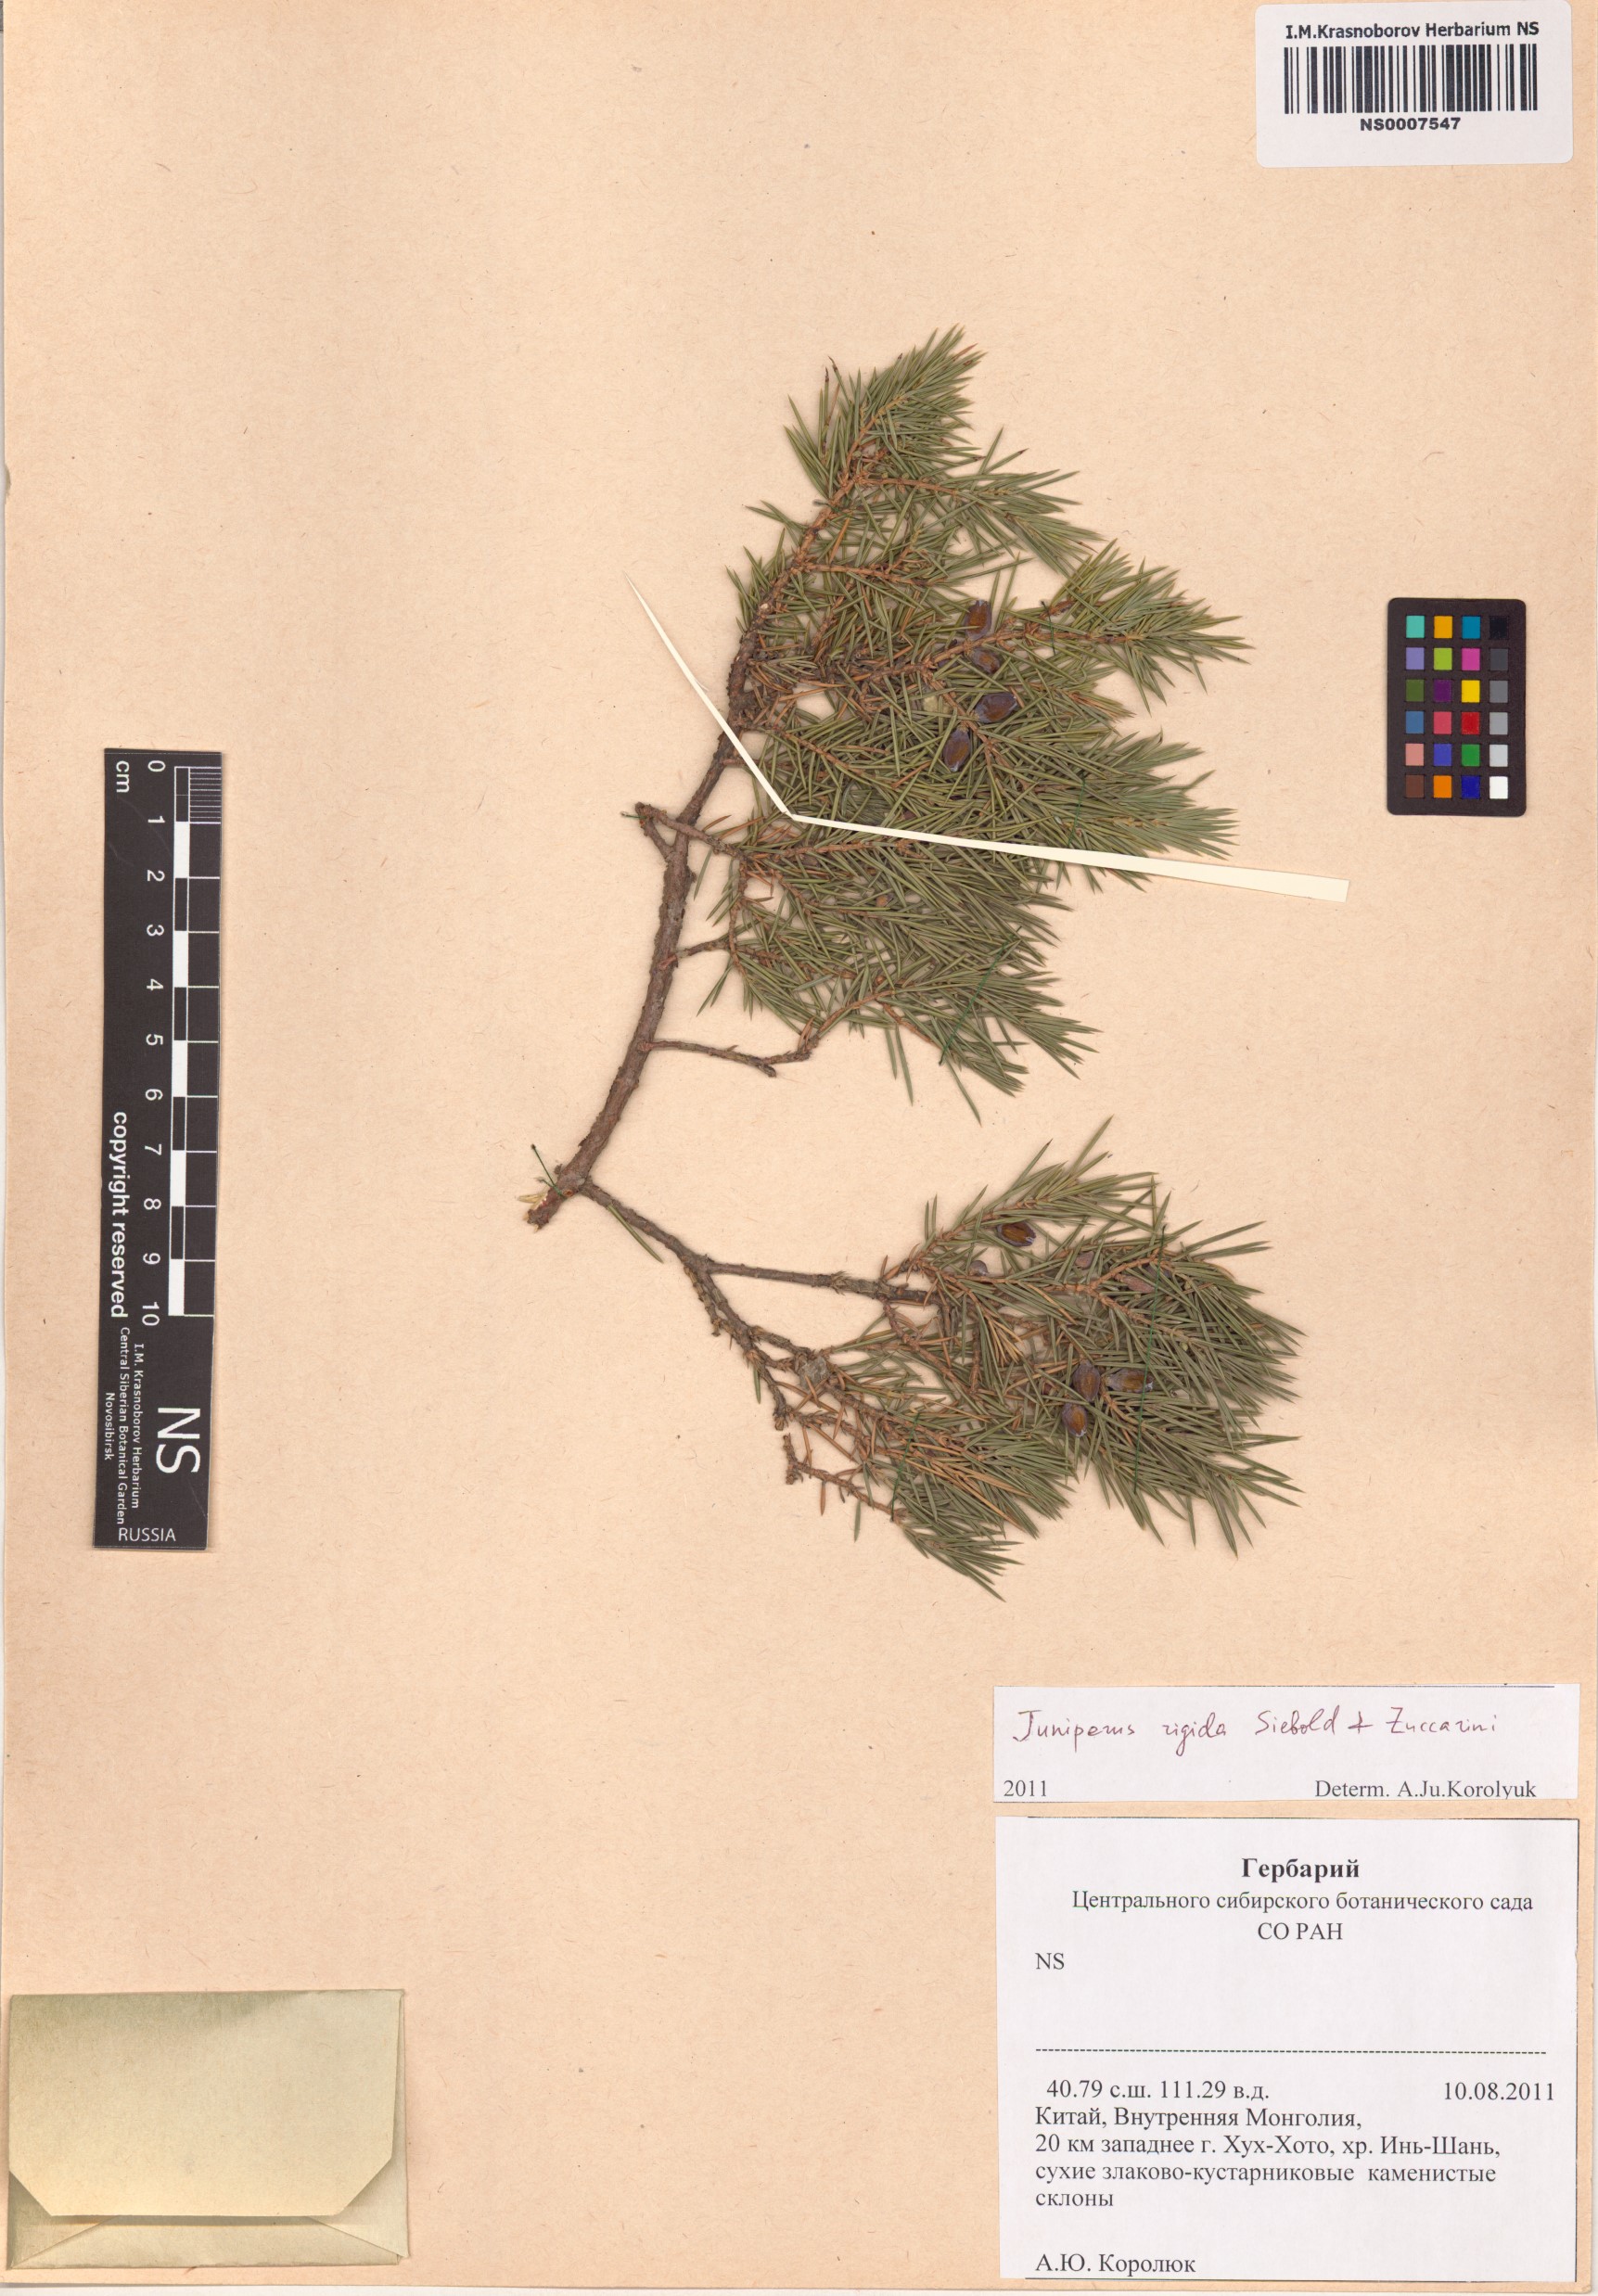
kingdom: Plantae
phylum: Tracheophyta
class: Pinopsida
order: Pinales
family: Cupressaceae
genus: Juniperus
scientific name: Juniperus rigida
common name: Needle juniper
